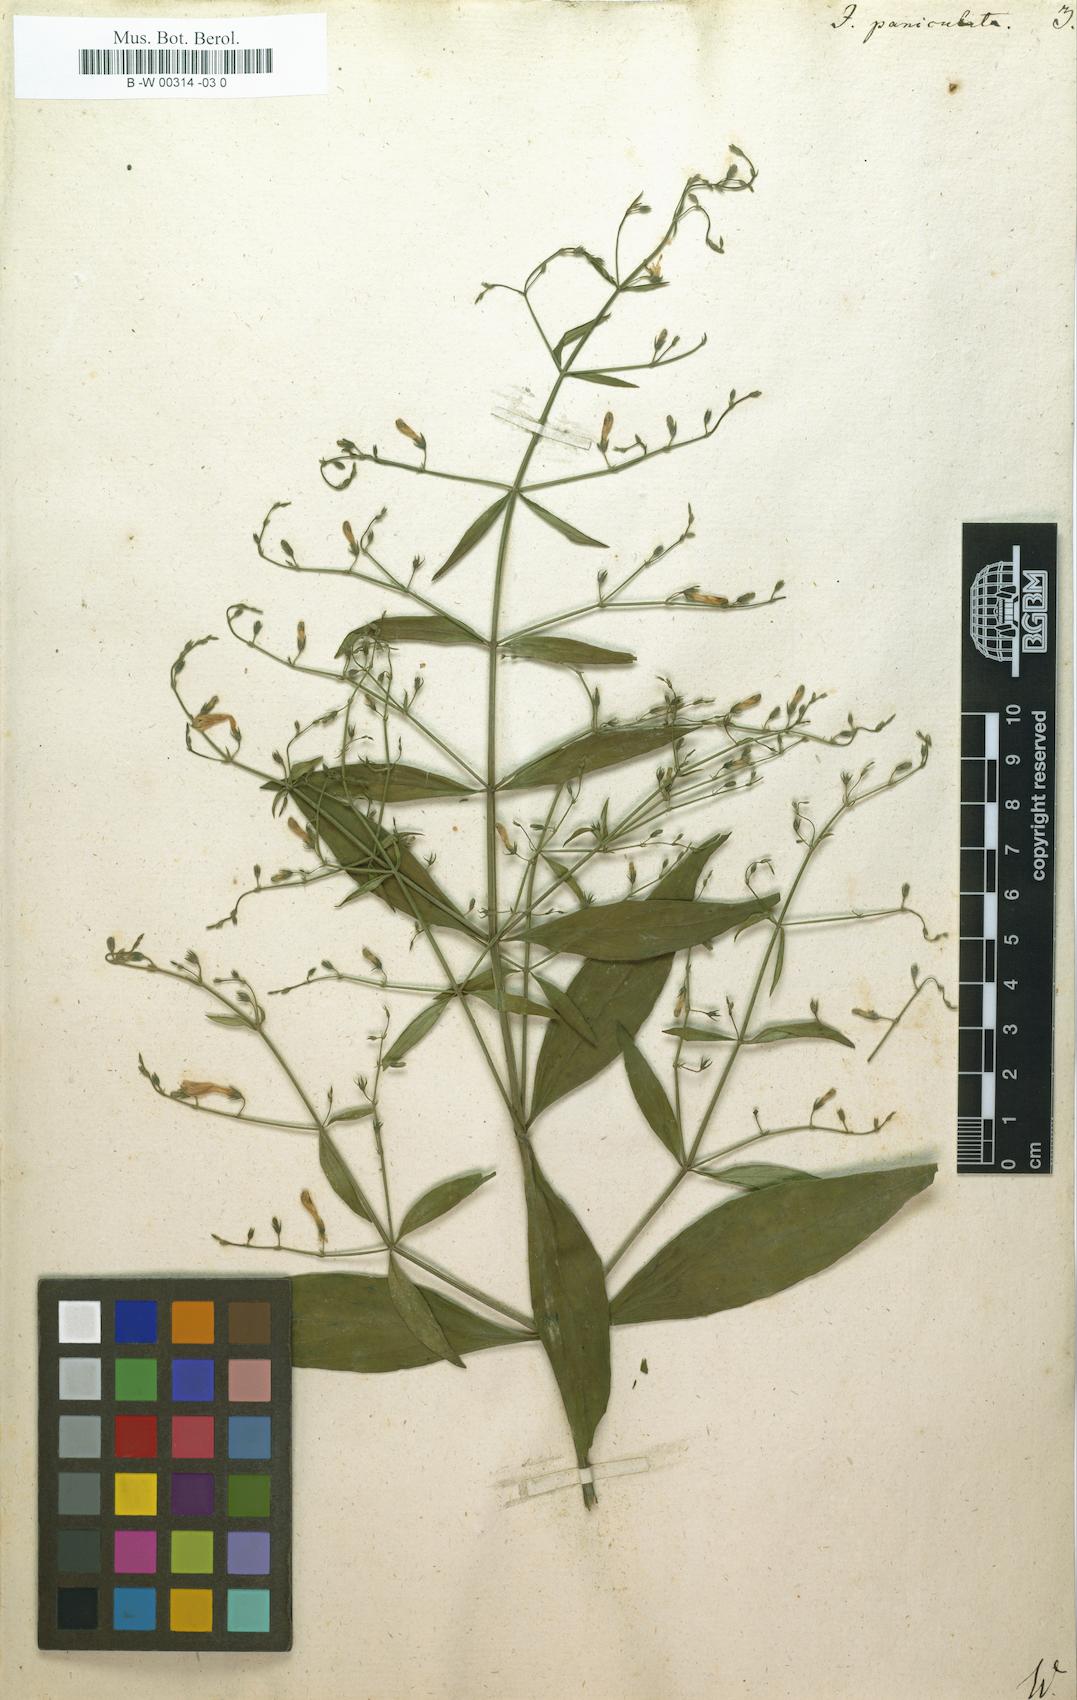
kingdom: Plantae
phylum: Tracheophyta
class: Magnoliopsida
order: Lamiales
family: Acanthaceae
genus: Justicia
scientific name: Justicia paniculata
